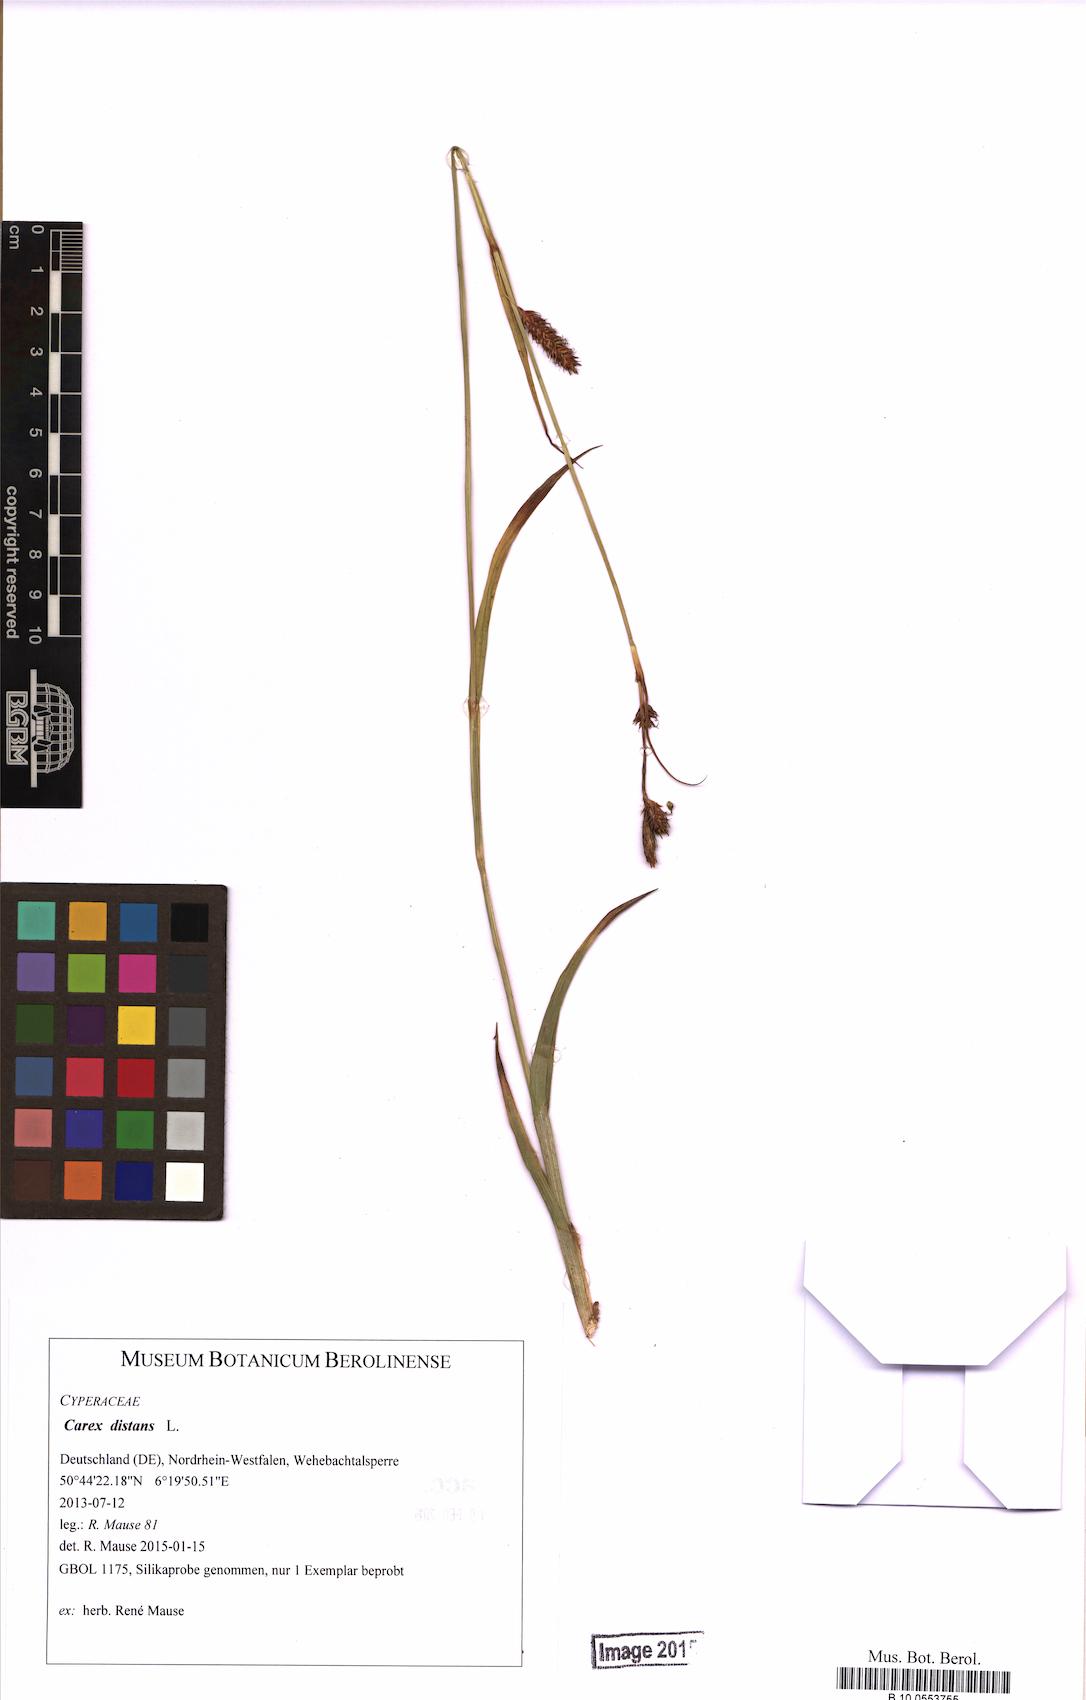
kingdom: Plantae
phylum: Tracheophyta
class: Liliopsida
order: Poales
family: Cyperaceae
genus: Carex
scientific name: Carex laevigata
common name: Smooth-stalked sedge
